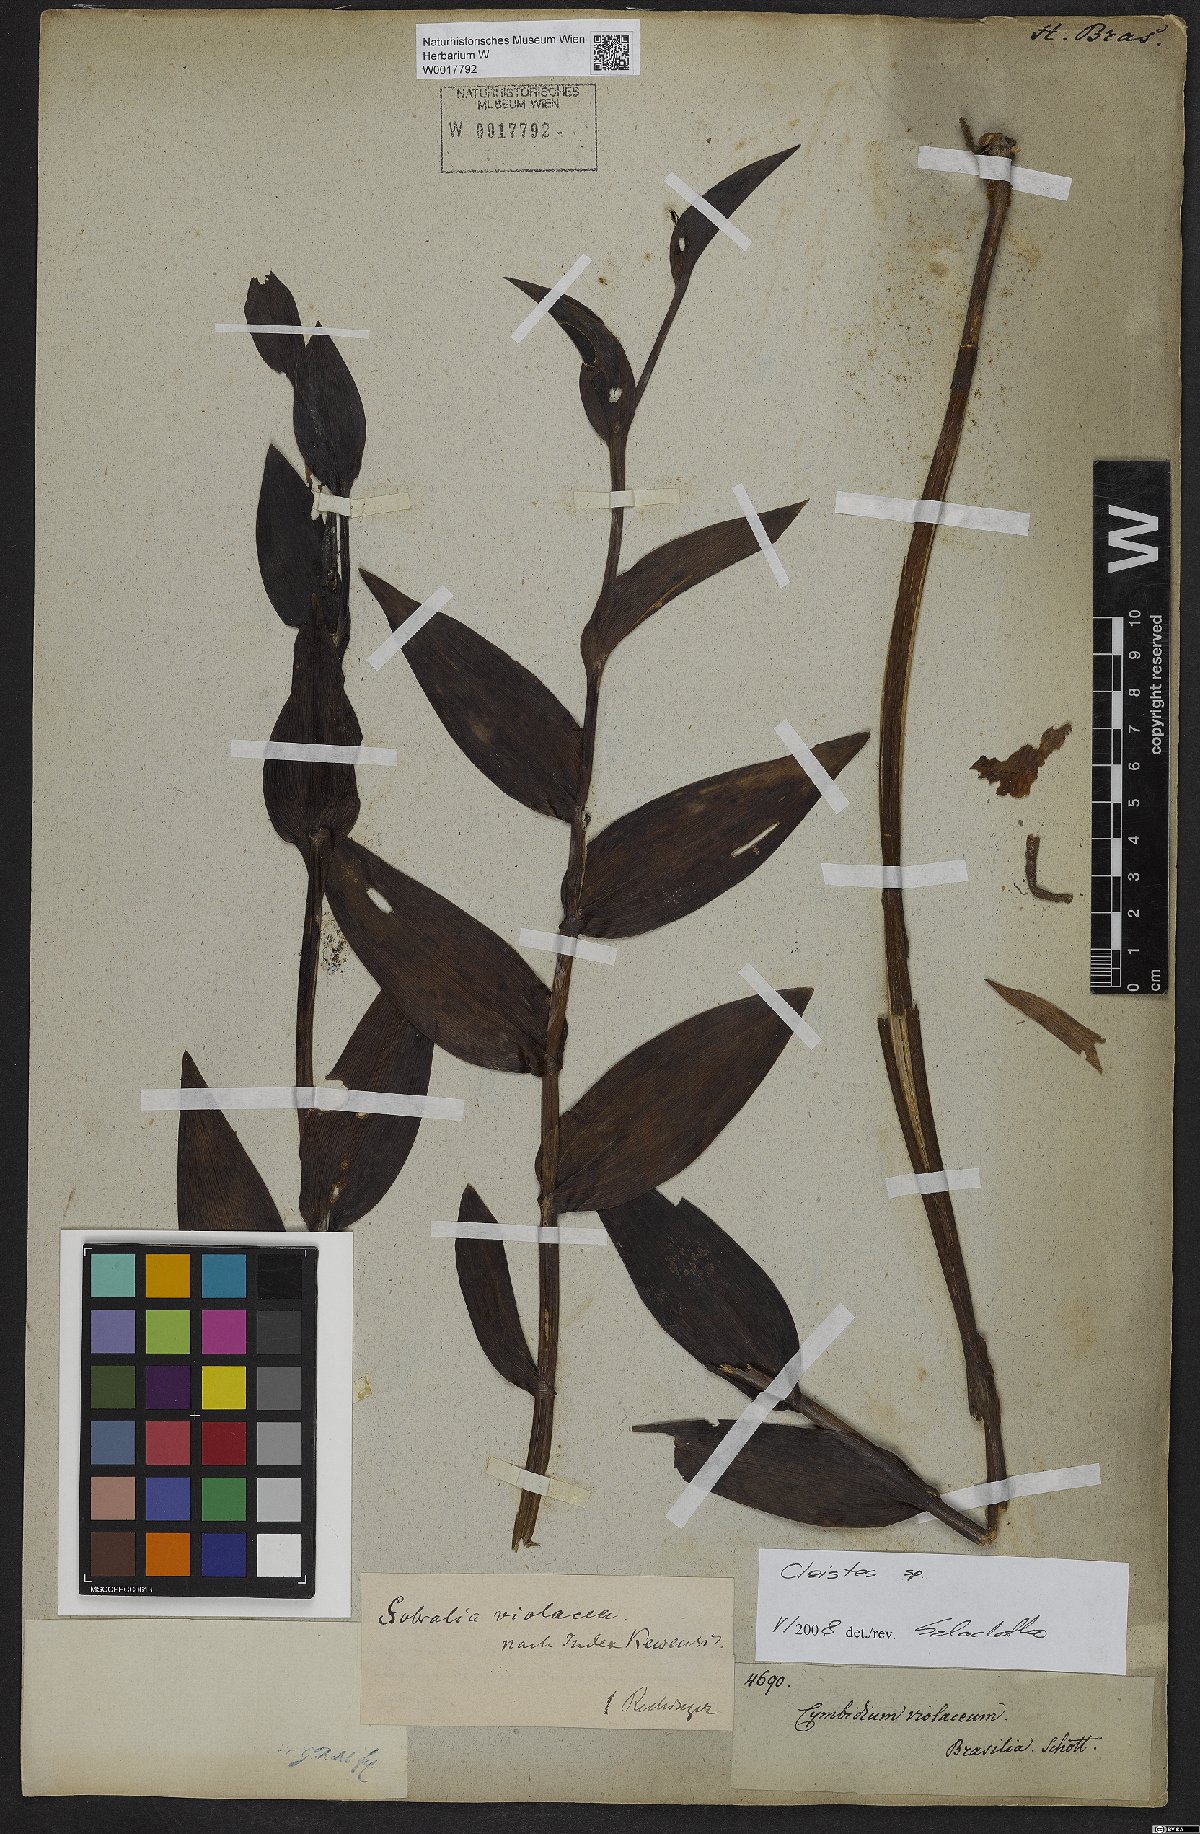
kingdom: Plantae
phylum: Tracheophyta
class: Liliopsida
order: Asparagales
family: Orchidaceae
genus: Cleistes
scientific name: Cleistes
